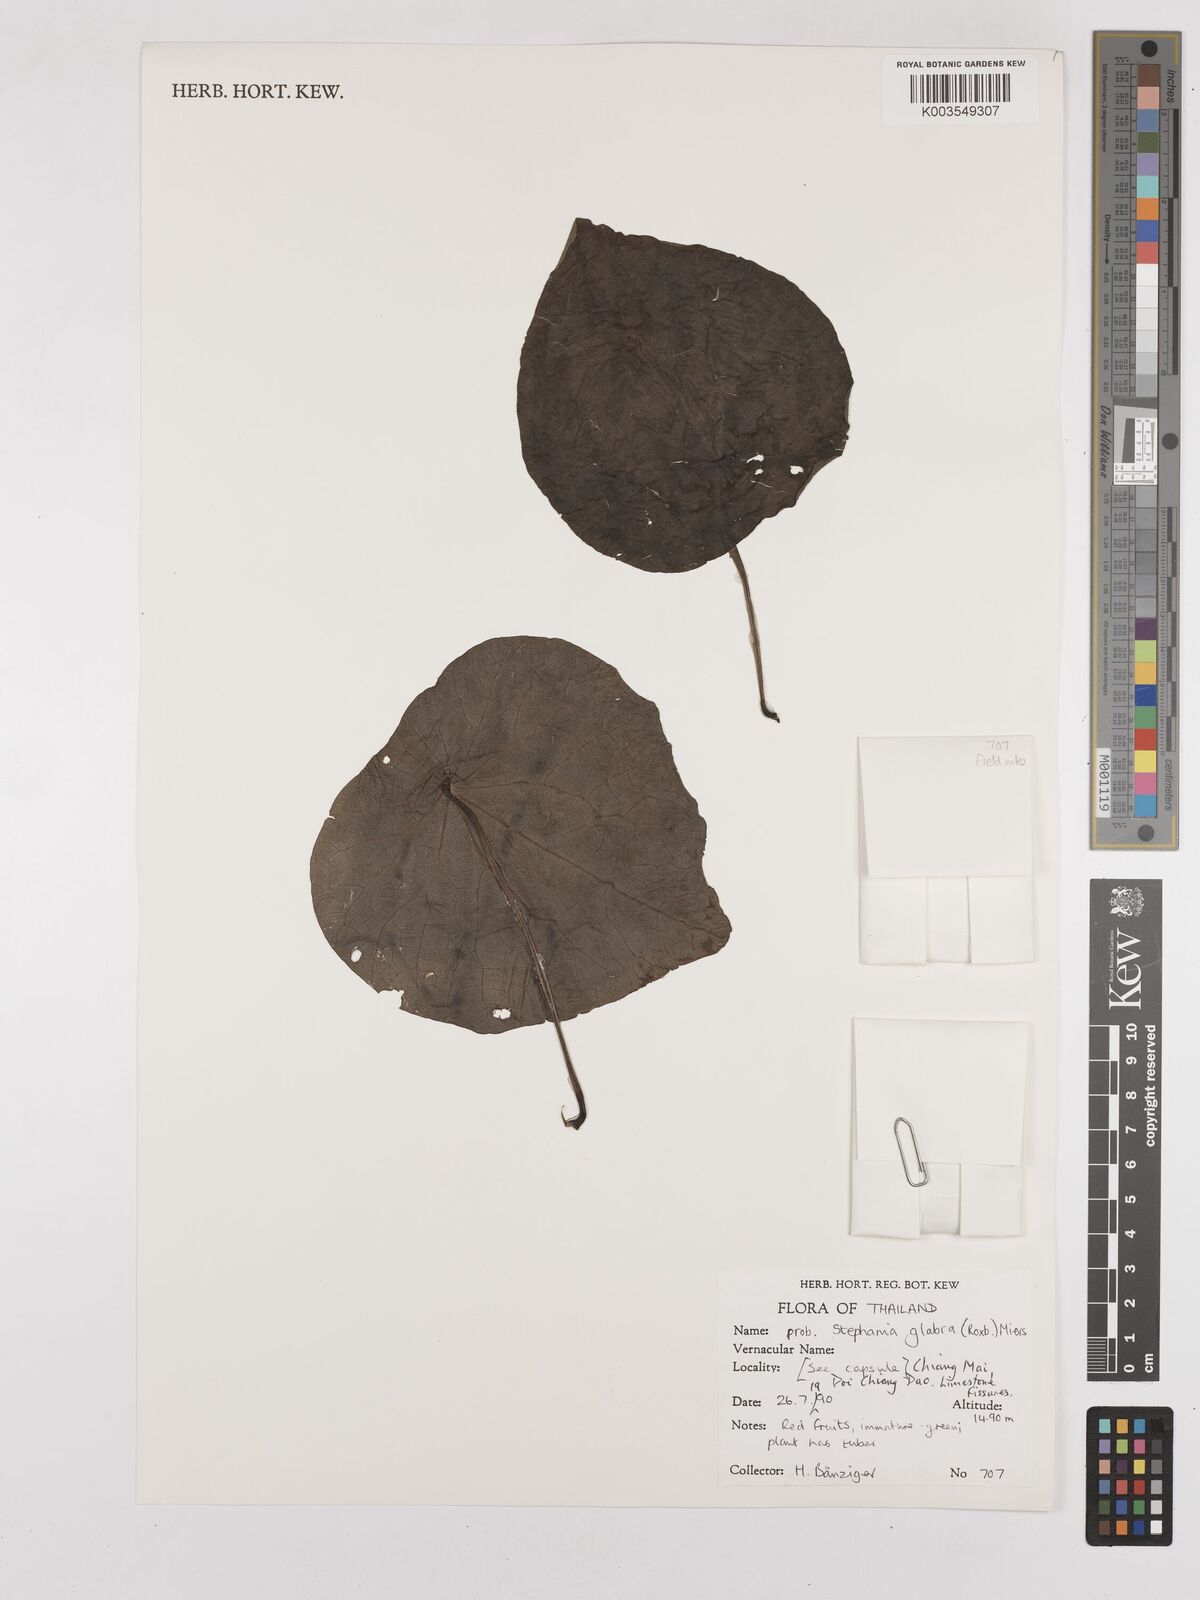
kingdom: Plantae
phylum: Tracheophyta
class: Magnoliopsida
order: Ranunculales
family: Menispermaceae
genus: Stephania
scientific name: Stephania rotunda
